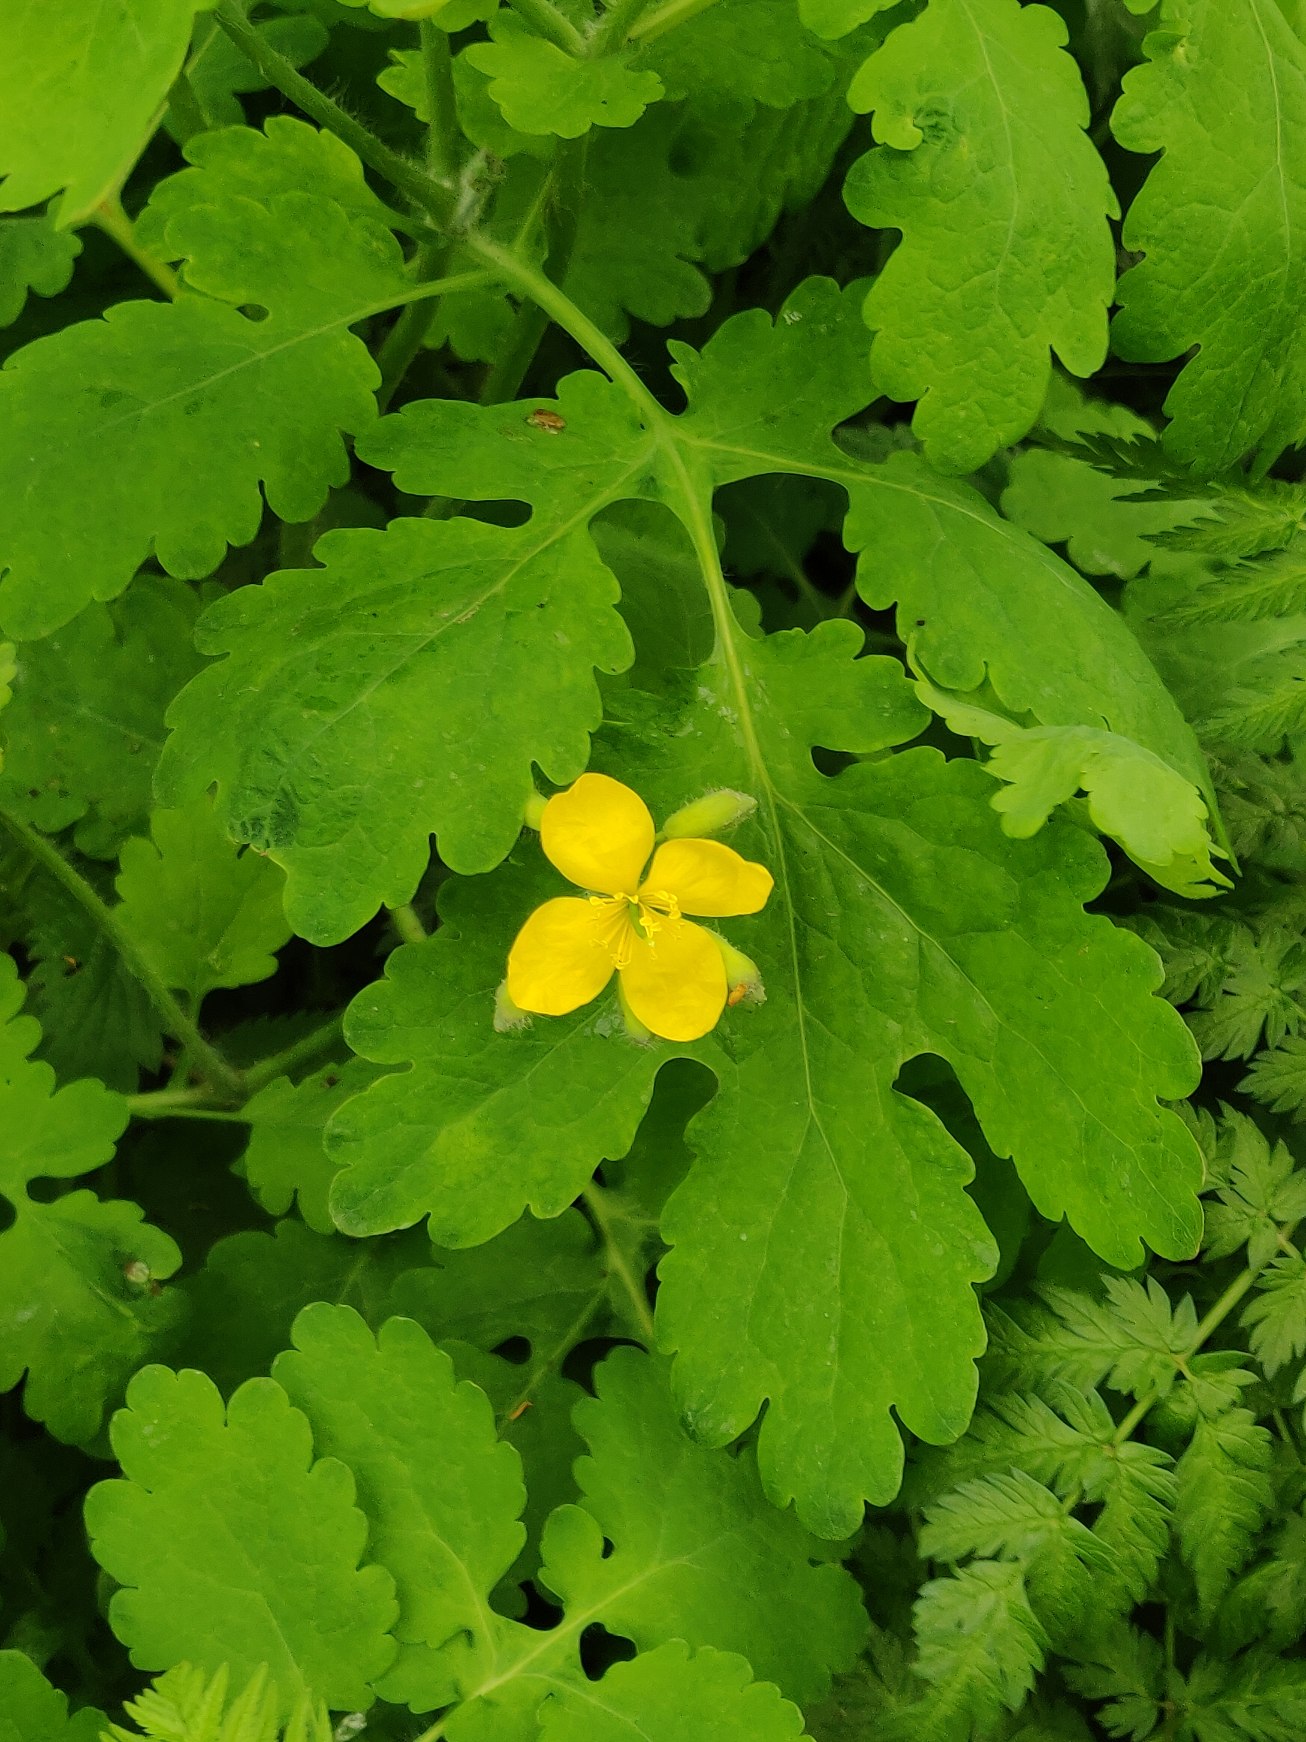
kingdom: Plantae
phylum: Tracheophyta
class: Magnoliopsida
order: Ranunculales
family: Papaveraceae
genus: Chelidonium
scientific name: Chelidonium majus
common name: Svaleurt
